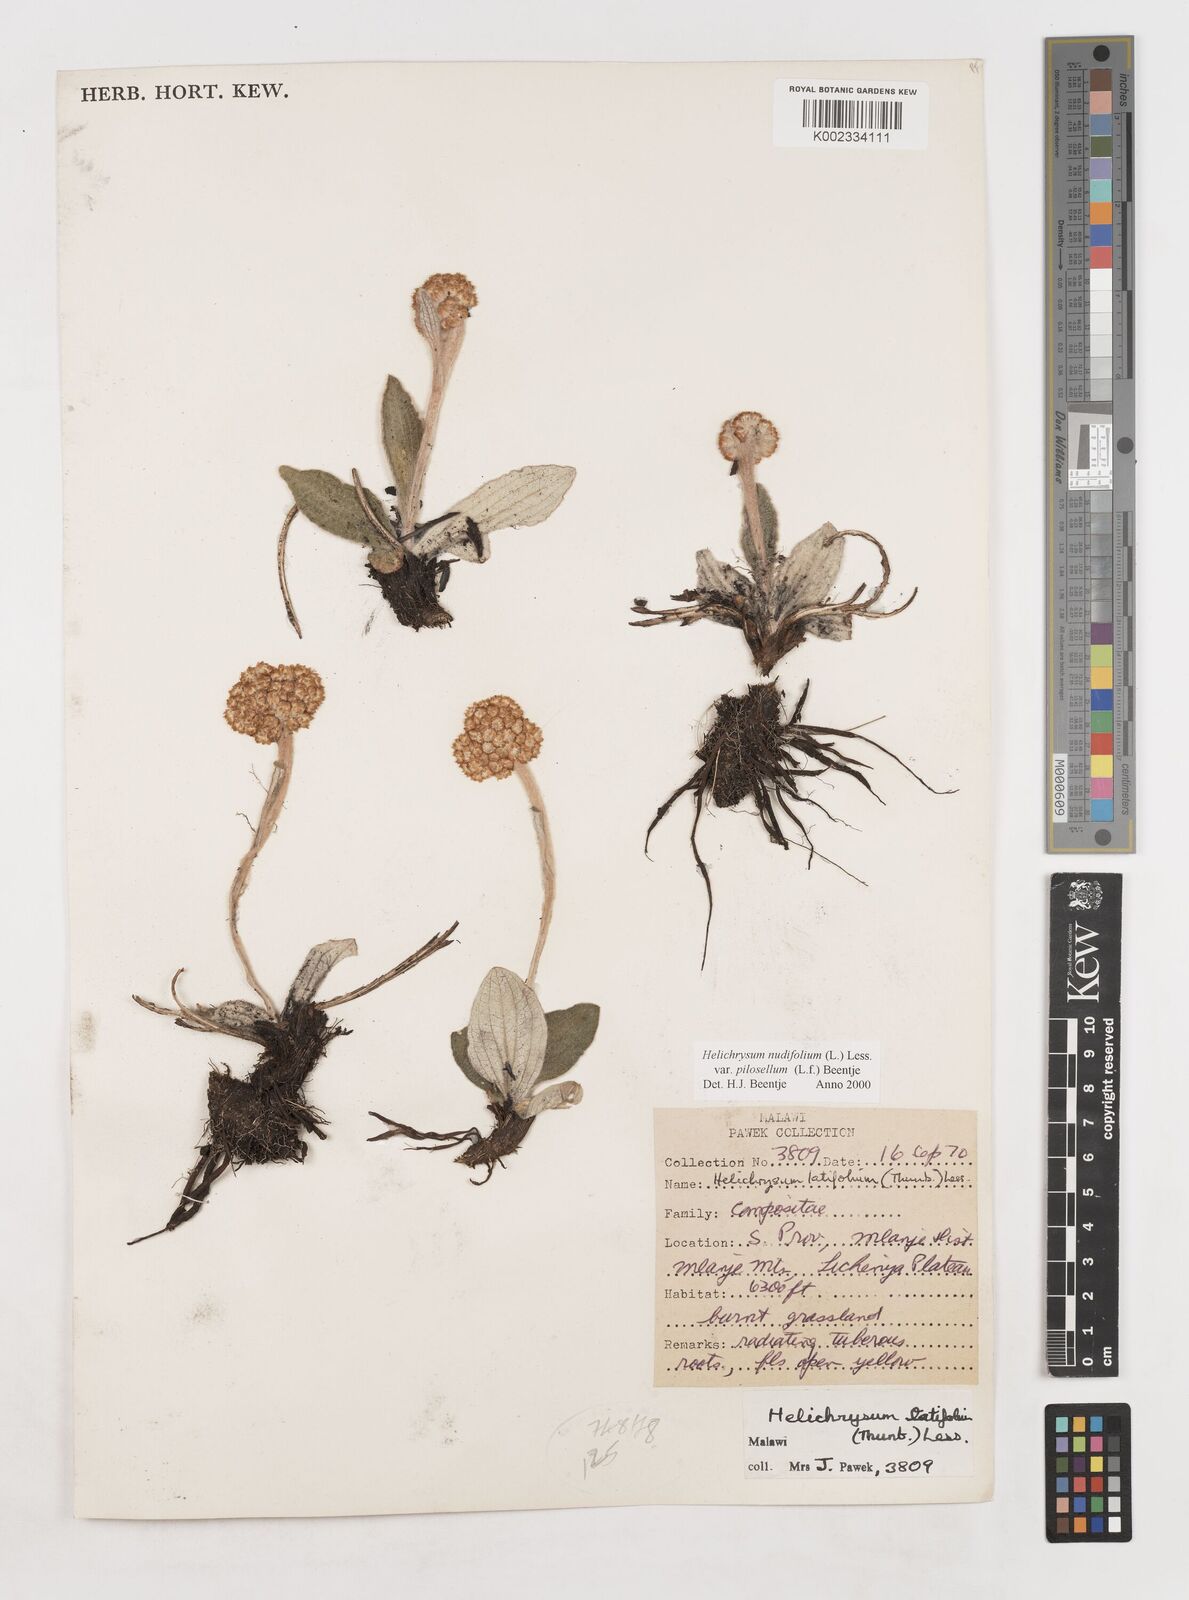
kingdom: Plantae
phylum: Tracheophyta
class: Magnoliopsida
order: Asterales
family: Asteraceae
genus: Helichrysum
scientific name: Helichrysum nudifolium
